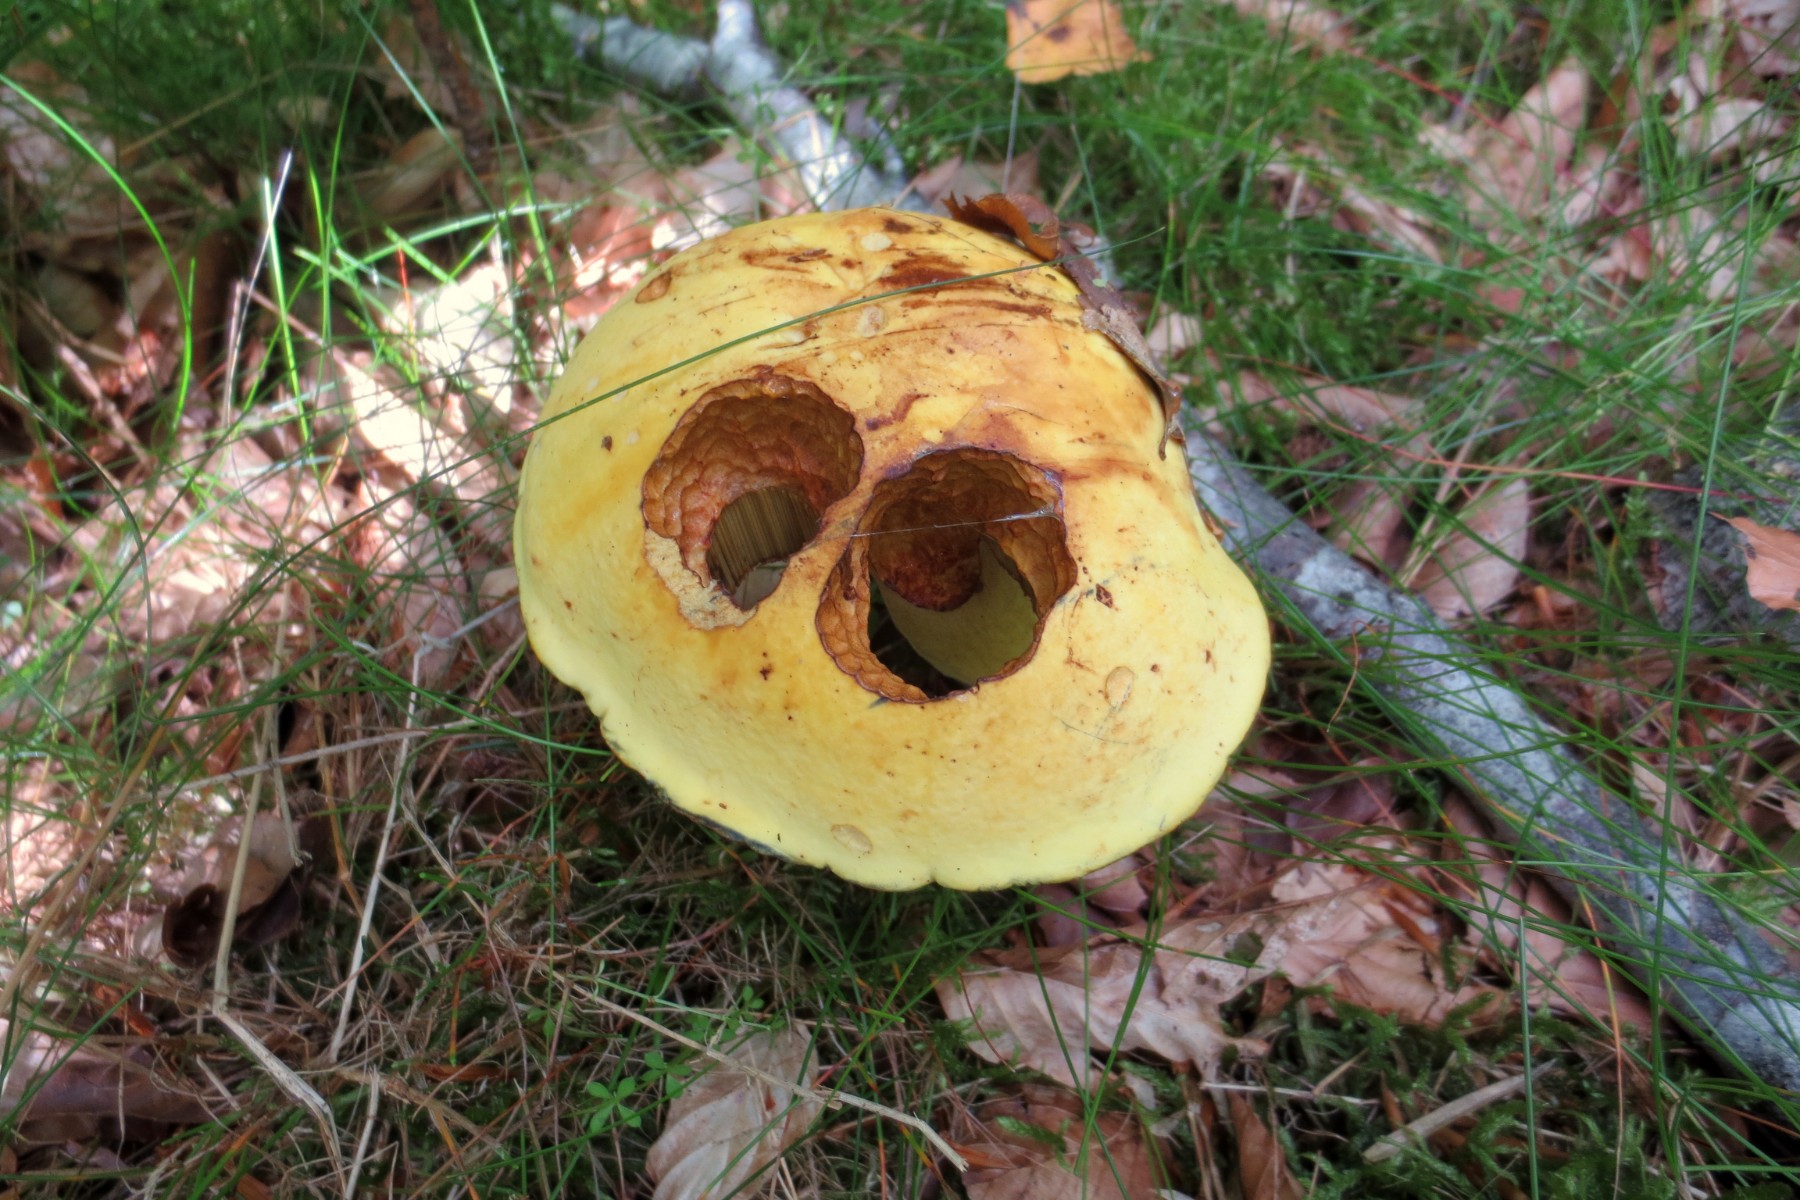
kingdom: Fungi
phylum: Basidiomycota
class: Agaricomycetes
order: Boletales
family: Boletaceae
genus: Neoboletus
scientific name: Neoboletus praestigiator
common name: gul indigorørhat
